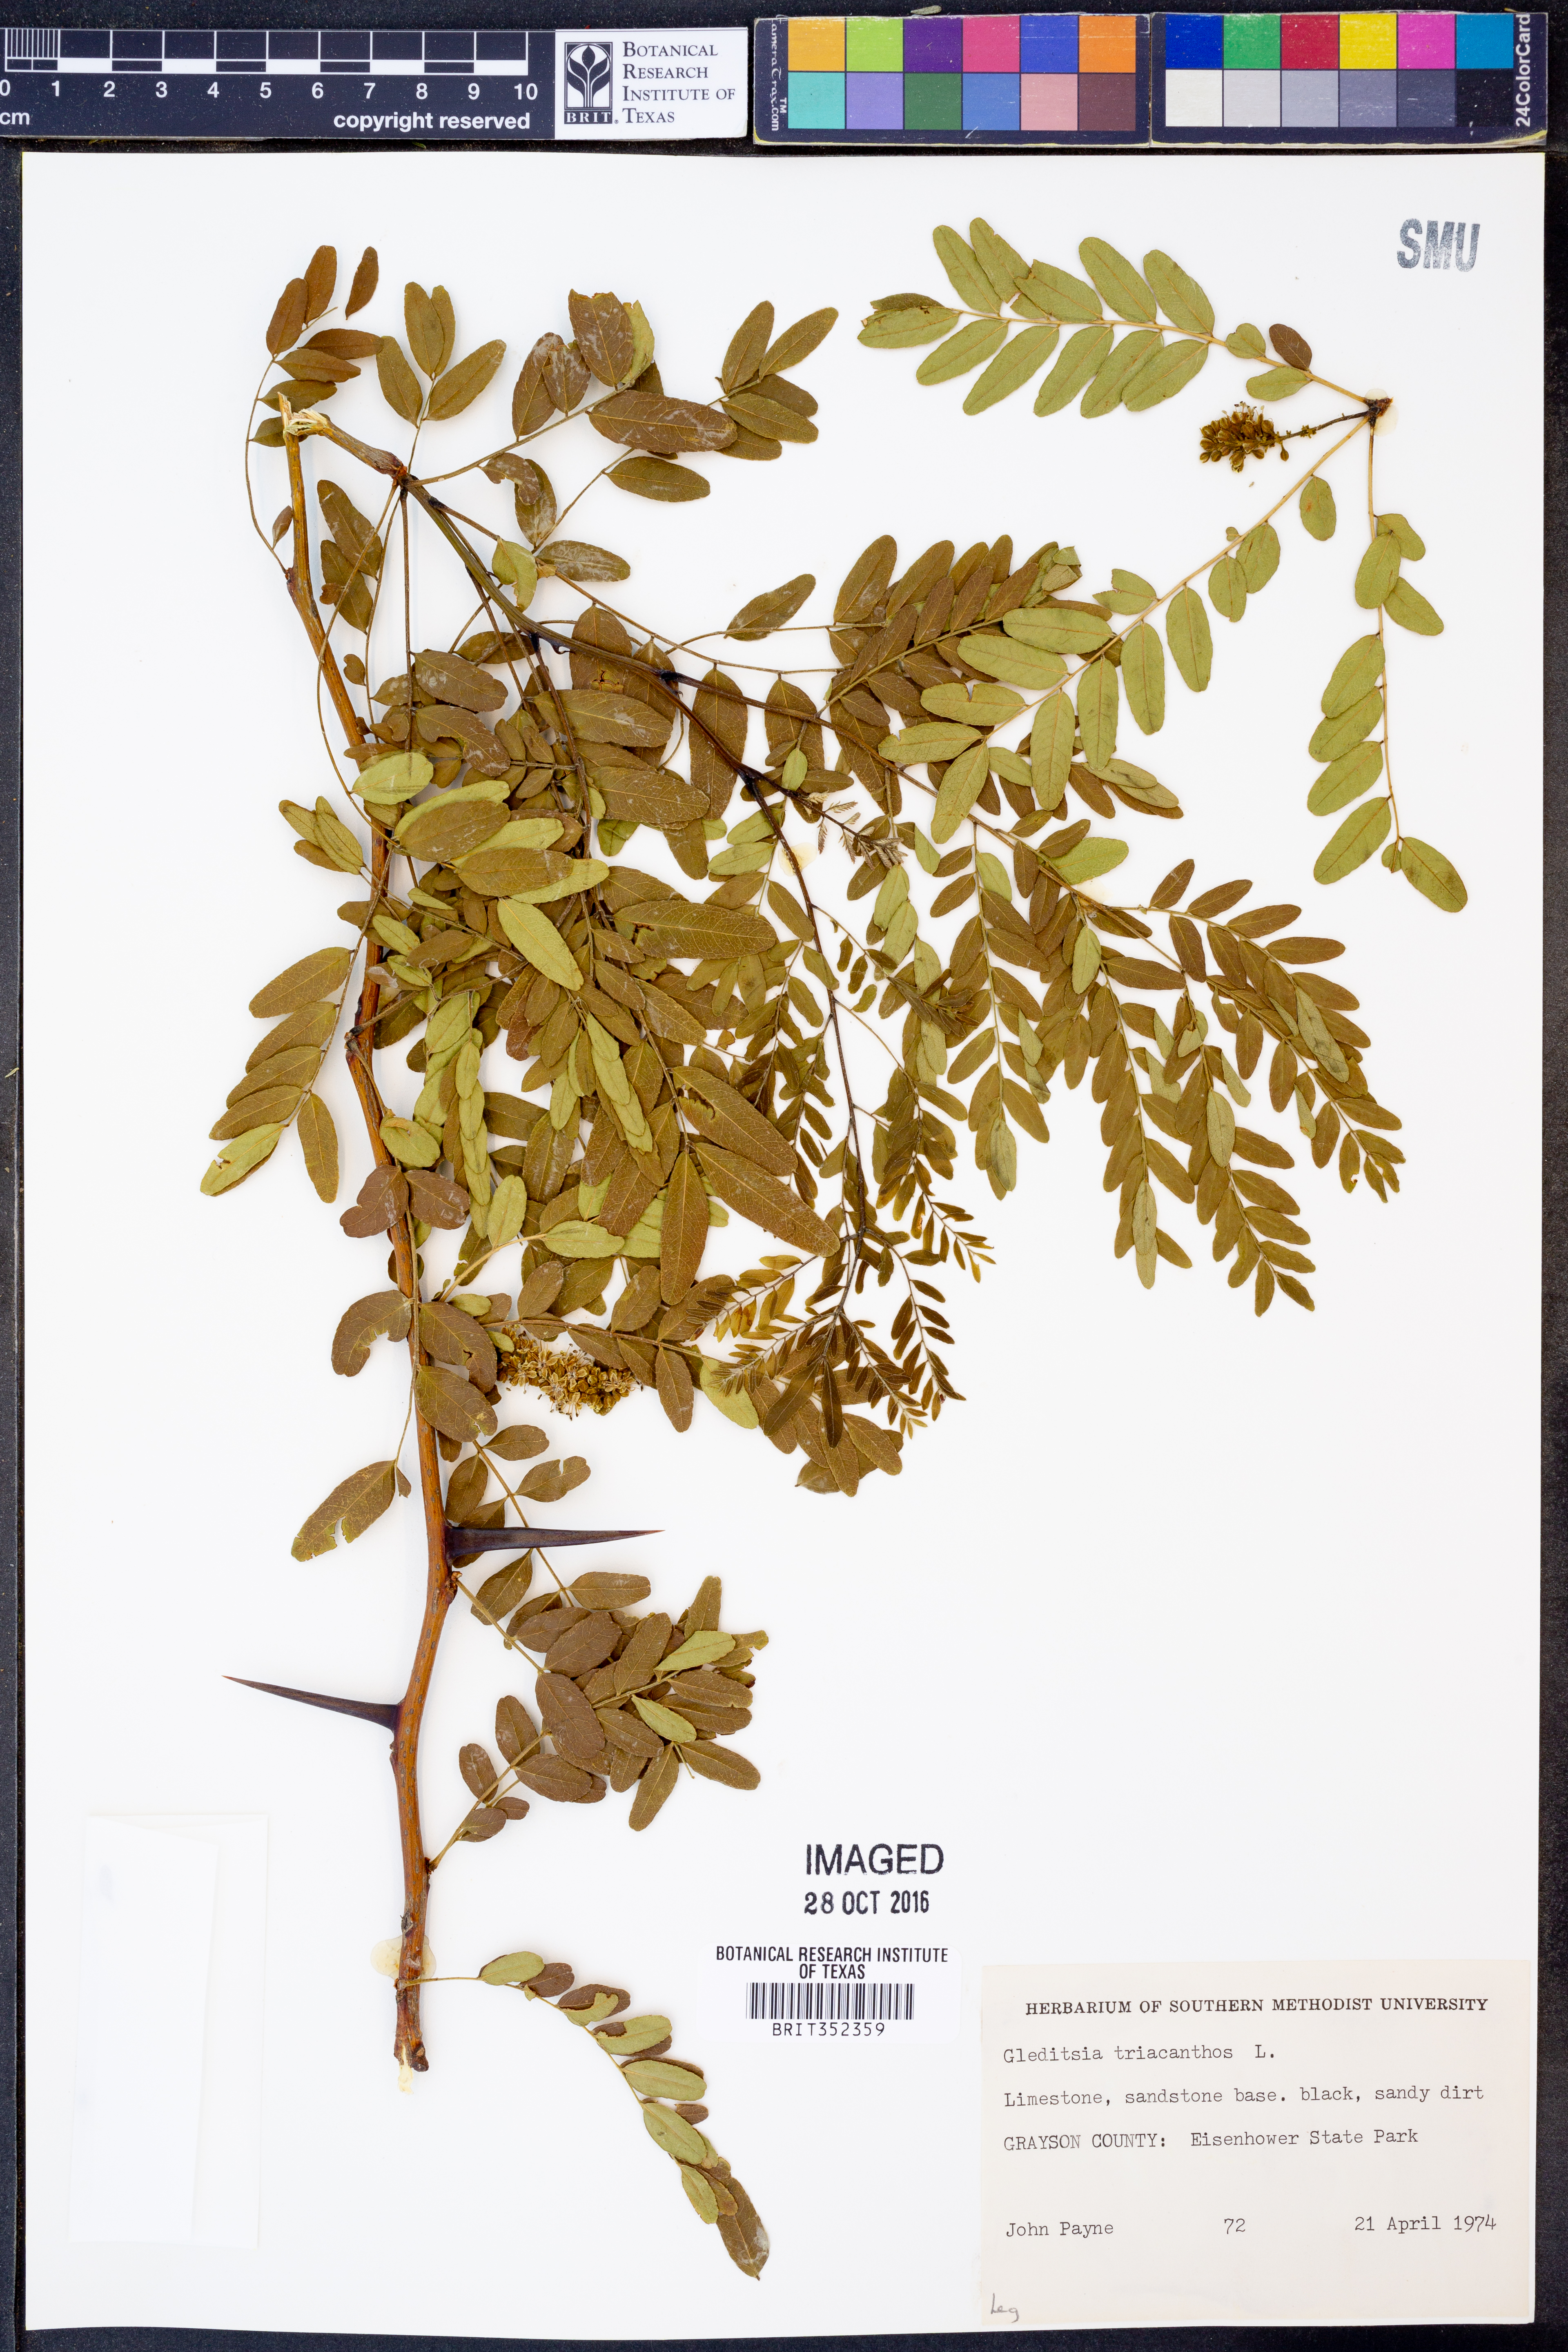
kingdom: Plantae
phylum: Tracheophyta
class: Magnoliopsida
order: Fabales
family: Fabaceae
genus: Gleditsia
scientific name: Gleditsia triacanthos
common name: Common honeylocust
